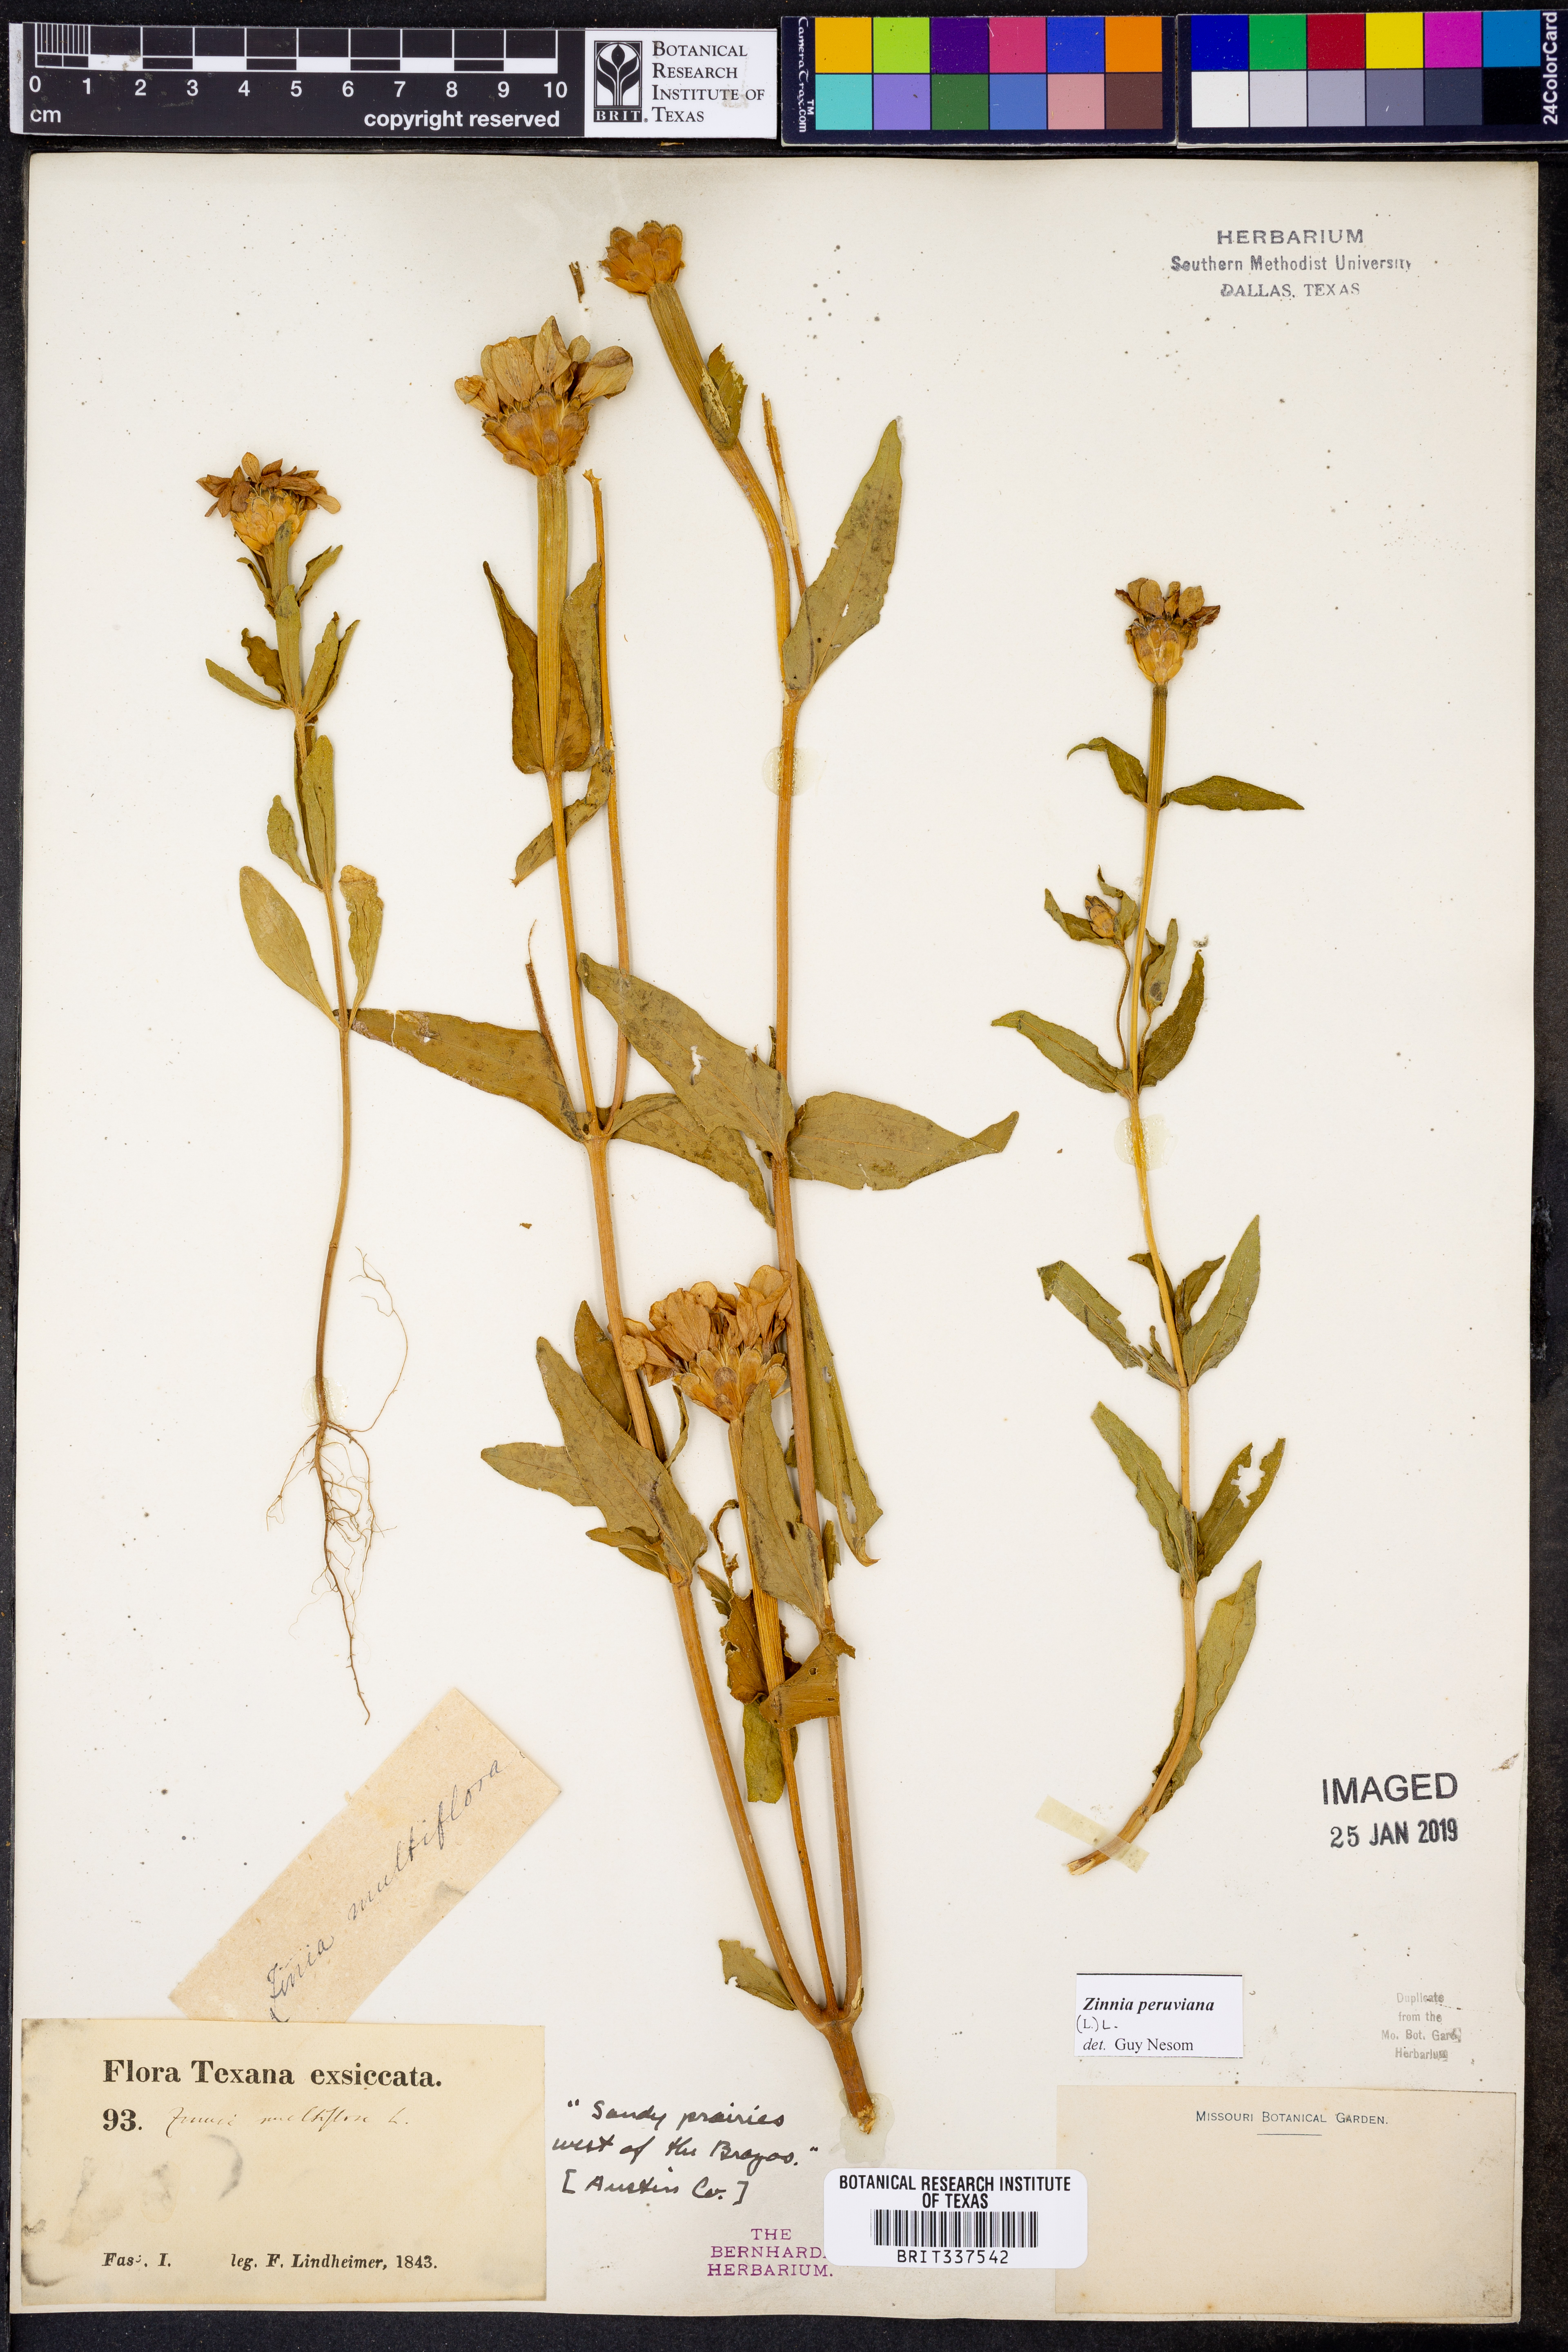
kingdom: Plantae
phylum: Tracheophyta
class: Magnoliopsida
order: Asterales
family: Asteraceae
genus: Zinnia
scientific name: Zinnia peruviana
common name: Peruvian zinnia
